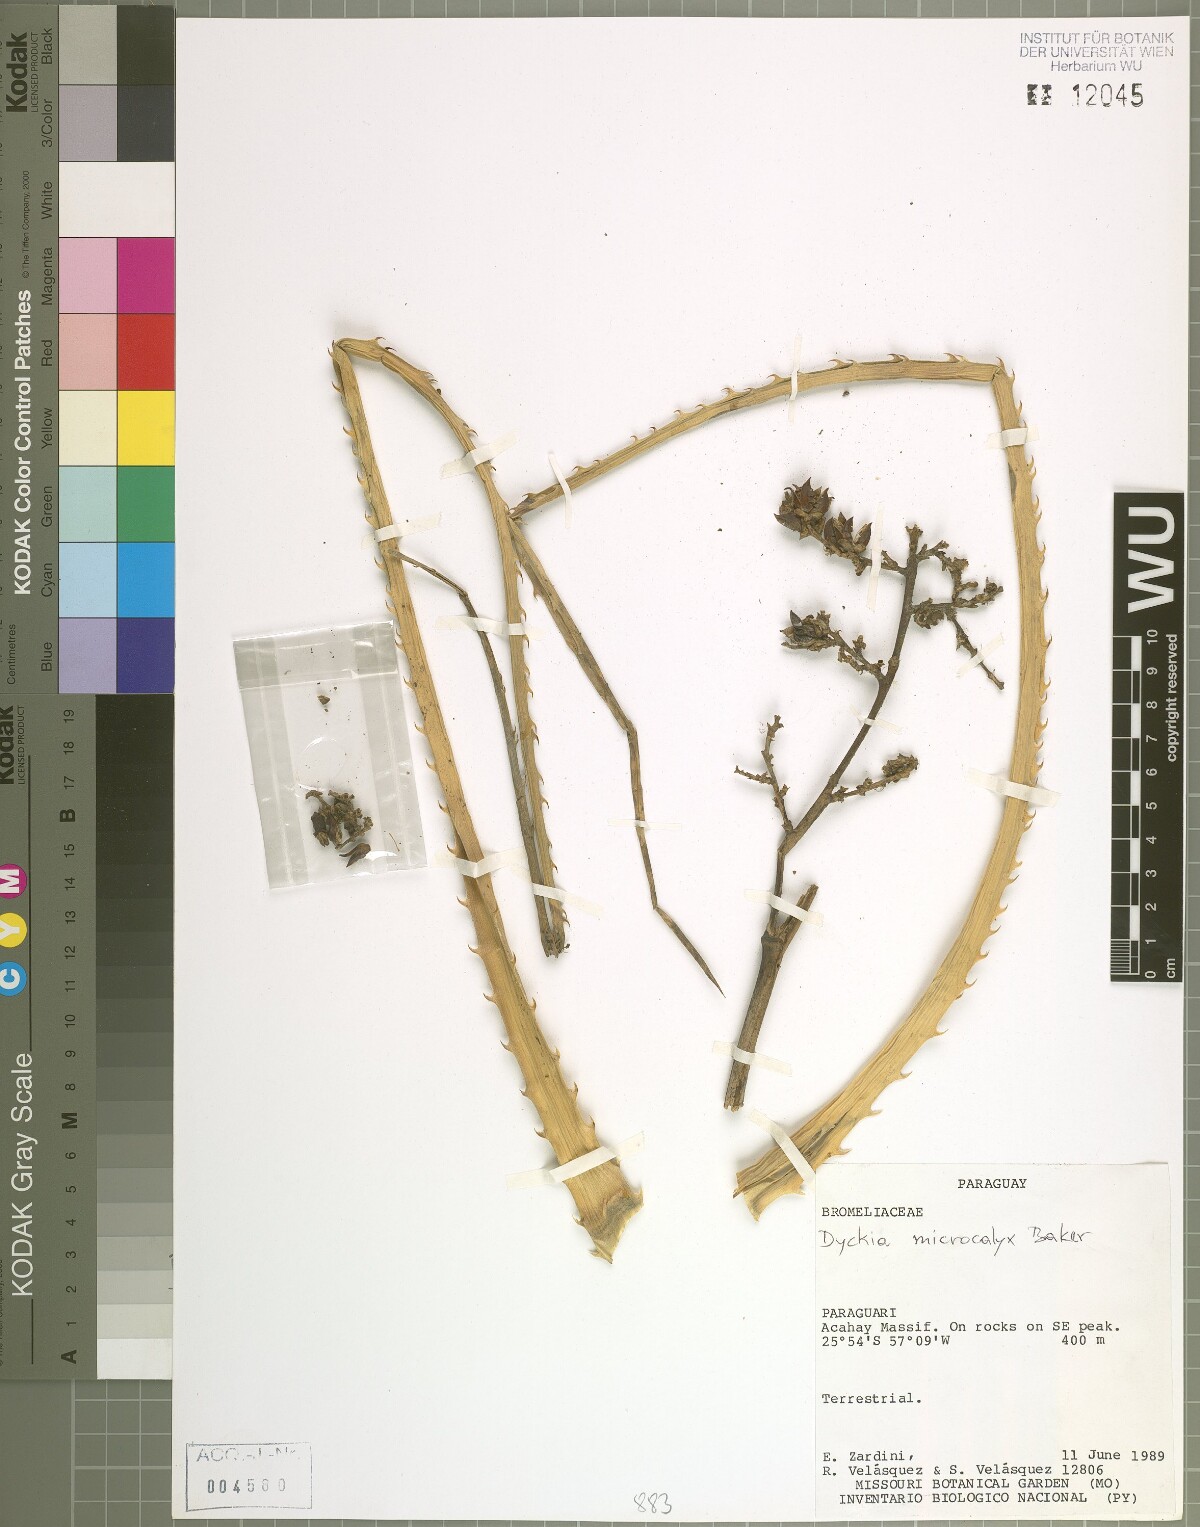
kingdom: Plantae
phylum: Tracheophyta
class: Liliopsida
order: Poales
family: Bromeliaceae
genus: Dyckia
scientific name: Dyckia microcalyx
